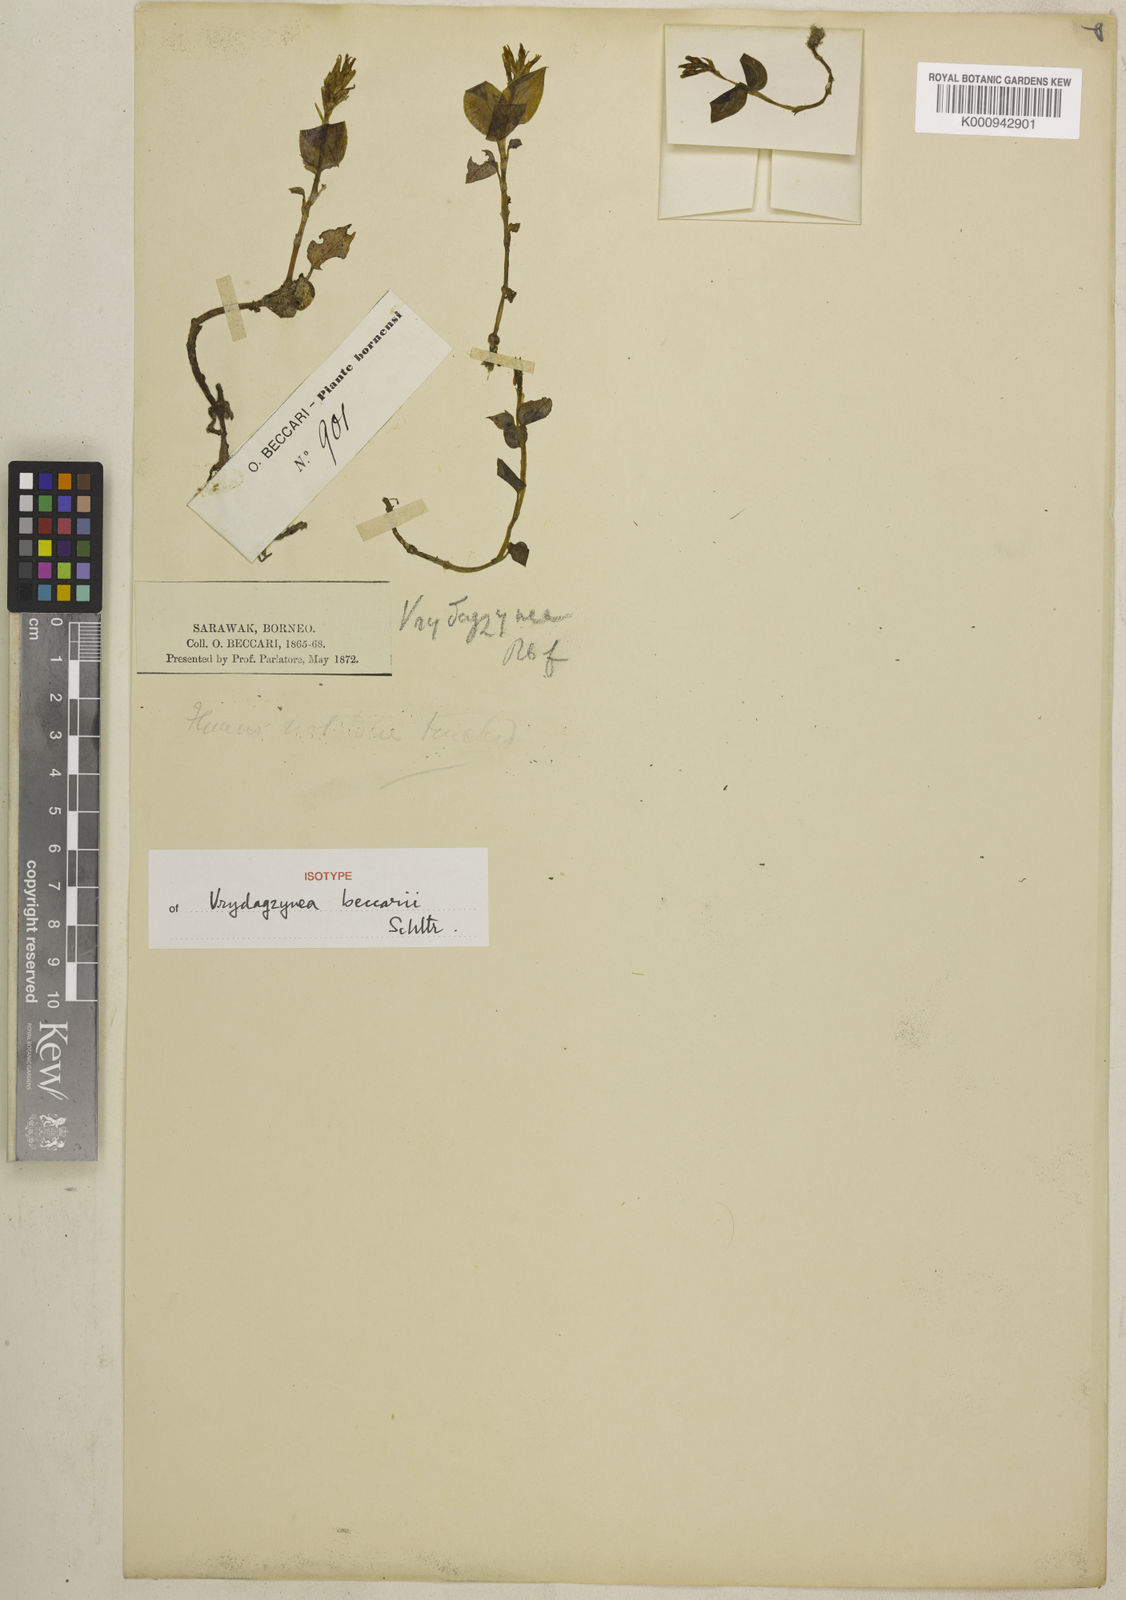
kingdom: Plantae
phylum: Tracheophyta
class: Liliopsida
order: Asparagales
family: Orchidaceae
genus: Vrydagzynea
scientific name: Vrydagzynea beccarii
